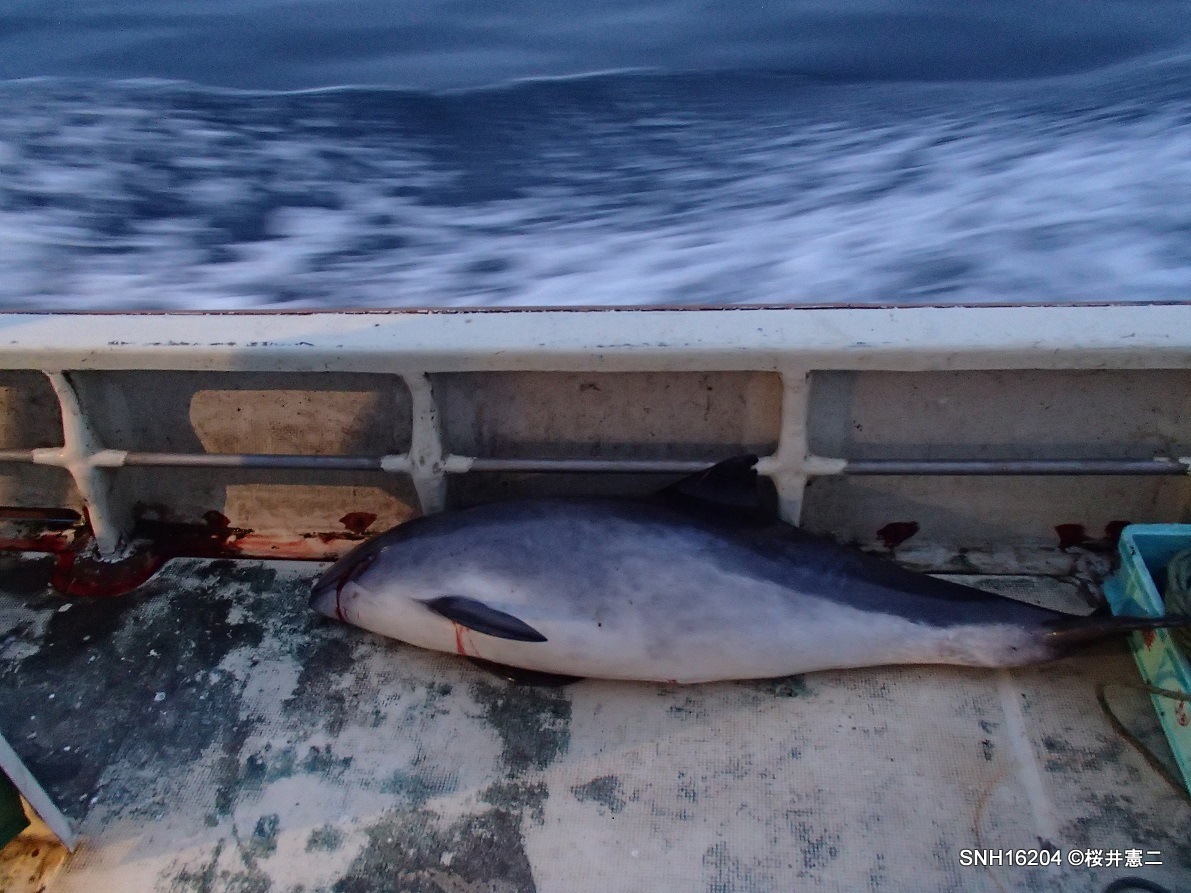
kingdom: Animalia
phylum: Chordata
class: Mammalia
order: Cetacea
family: Phocoenidae
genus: Phocoena
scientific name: Phocoena phocoena
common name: Harbour porpoise
